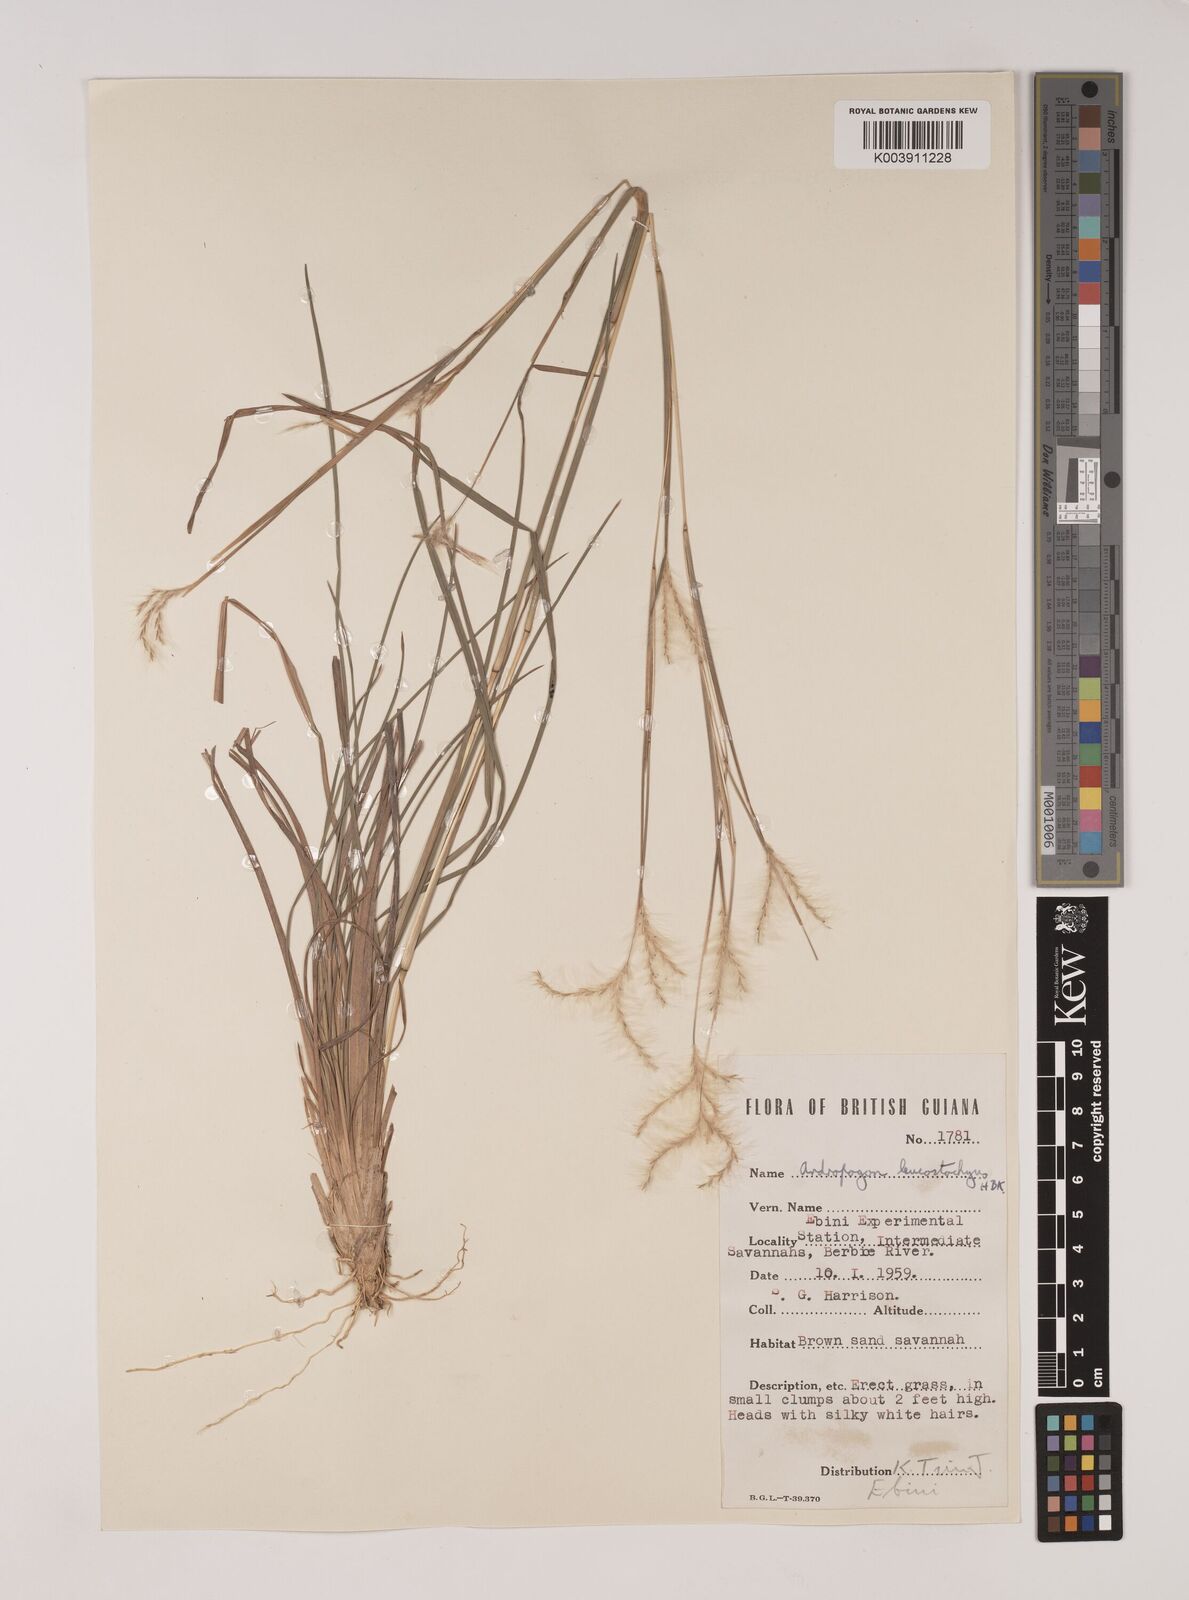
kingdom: Plantae
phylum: Tracheophyta
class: Liliopsida
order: Poales
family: Poaceae
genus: Andropogon
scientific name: Andropogon leucostachyus
